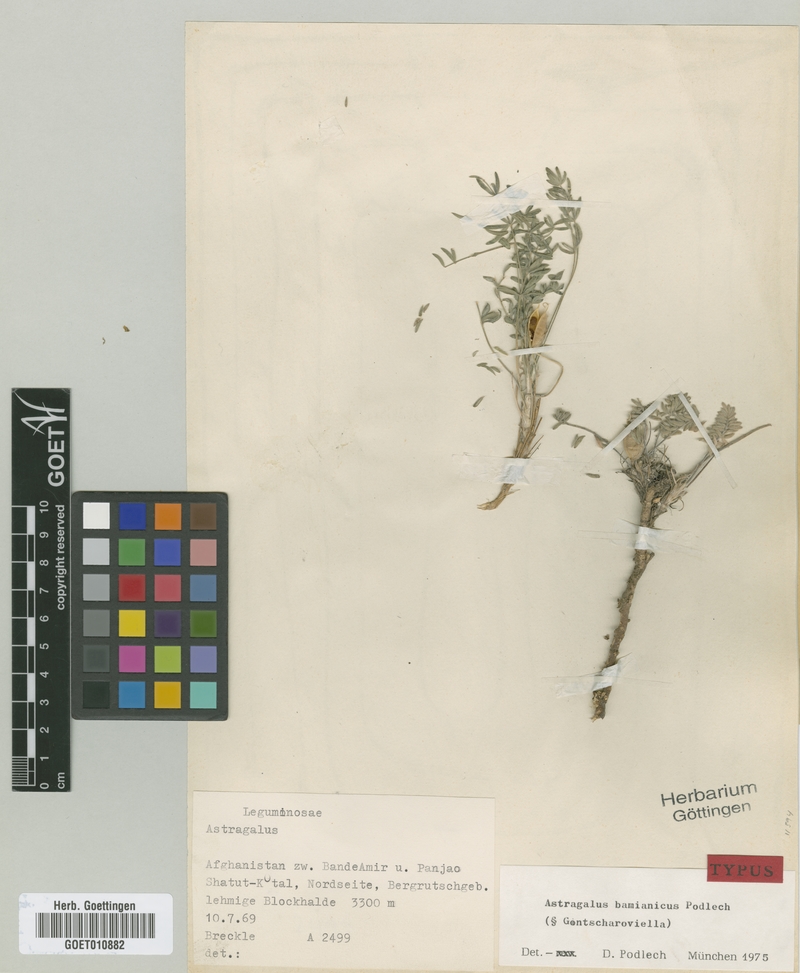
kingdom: Plantae
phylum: Tracheophyta
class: Magnoliopsida
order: Fabales
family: Fabaceae
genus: Astragalus
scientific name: Astragalus bamianicus
